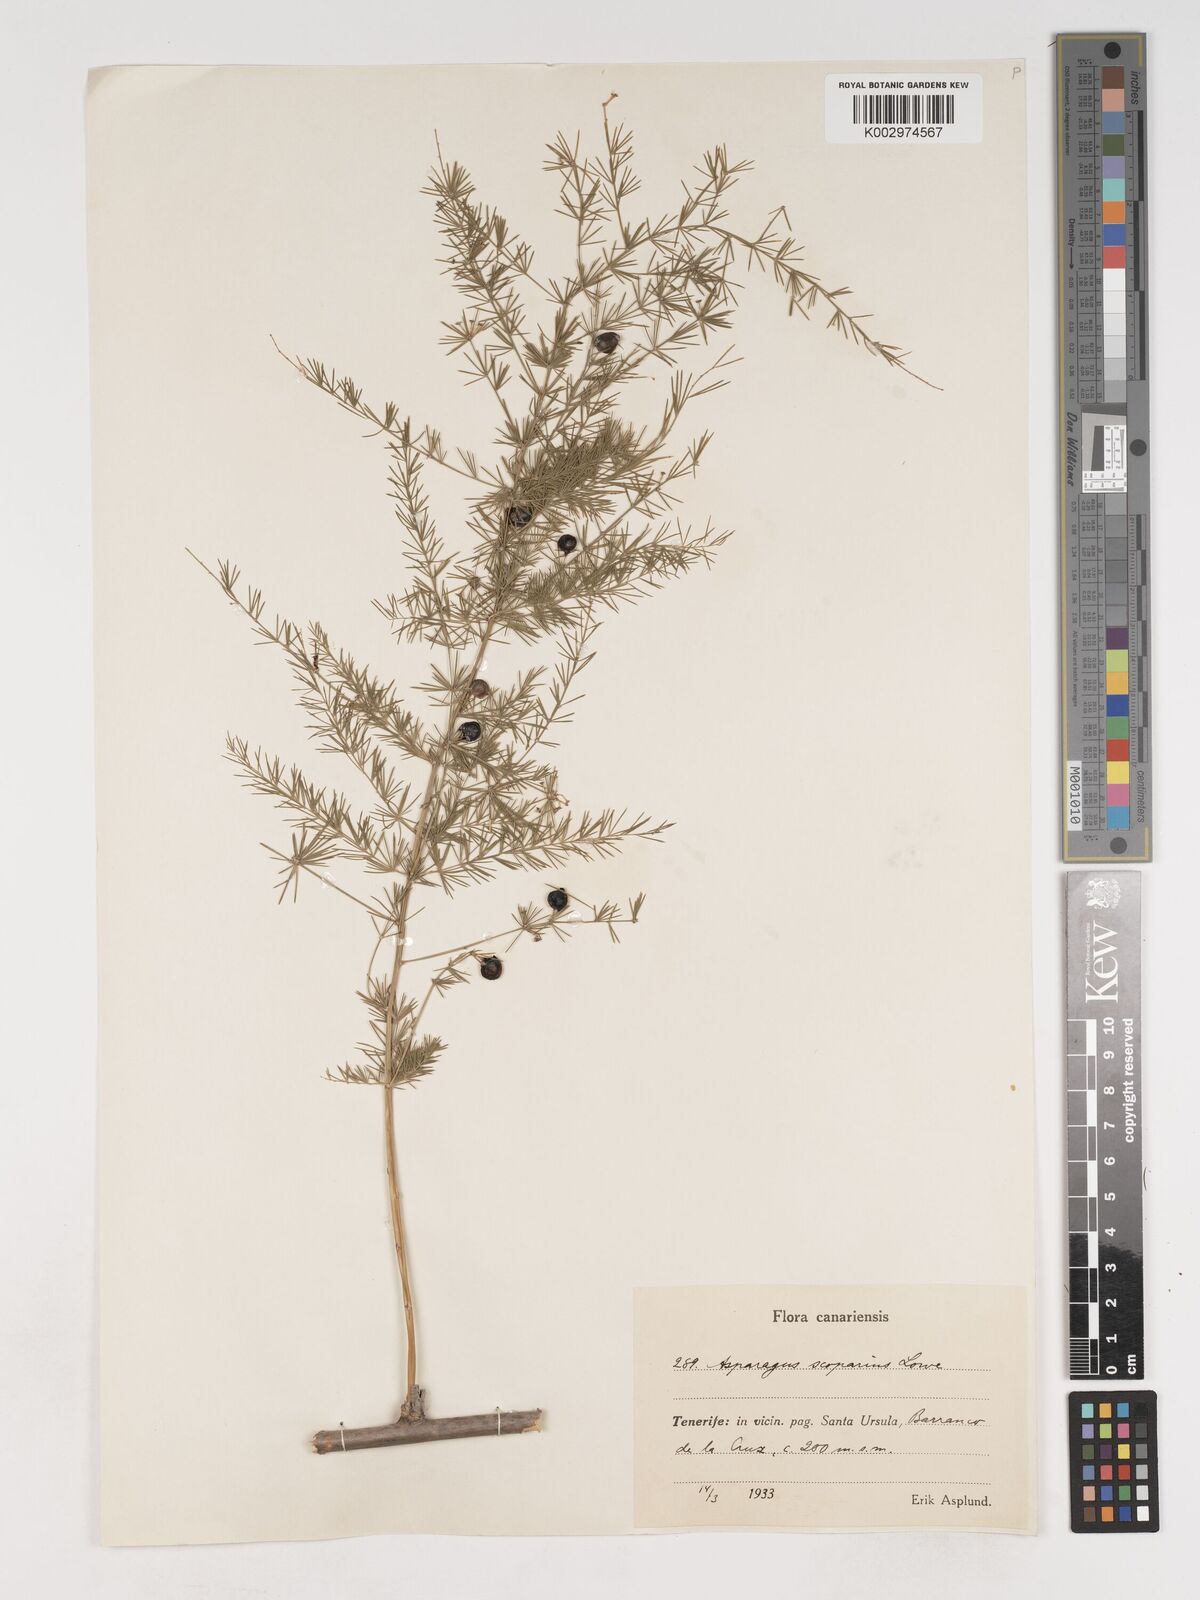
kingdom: Plantae
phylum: Tracheophyta
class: Liliopsida
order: Asparagales
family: Asparagaceae
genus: Asparagus
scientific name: Asparagus scoparius
